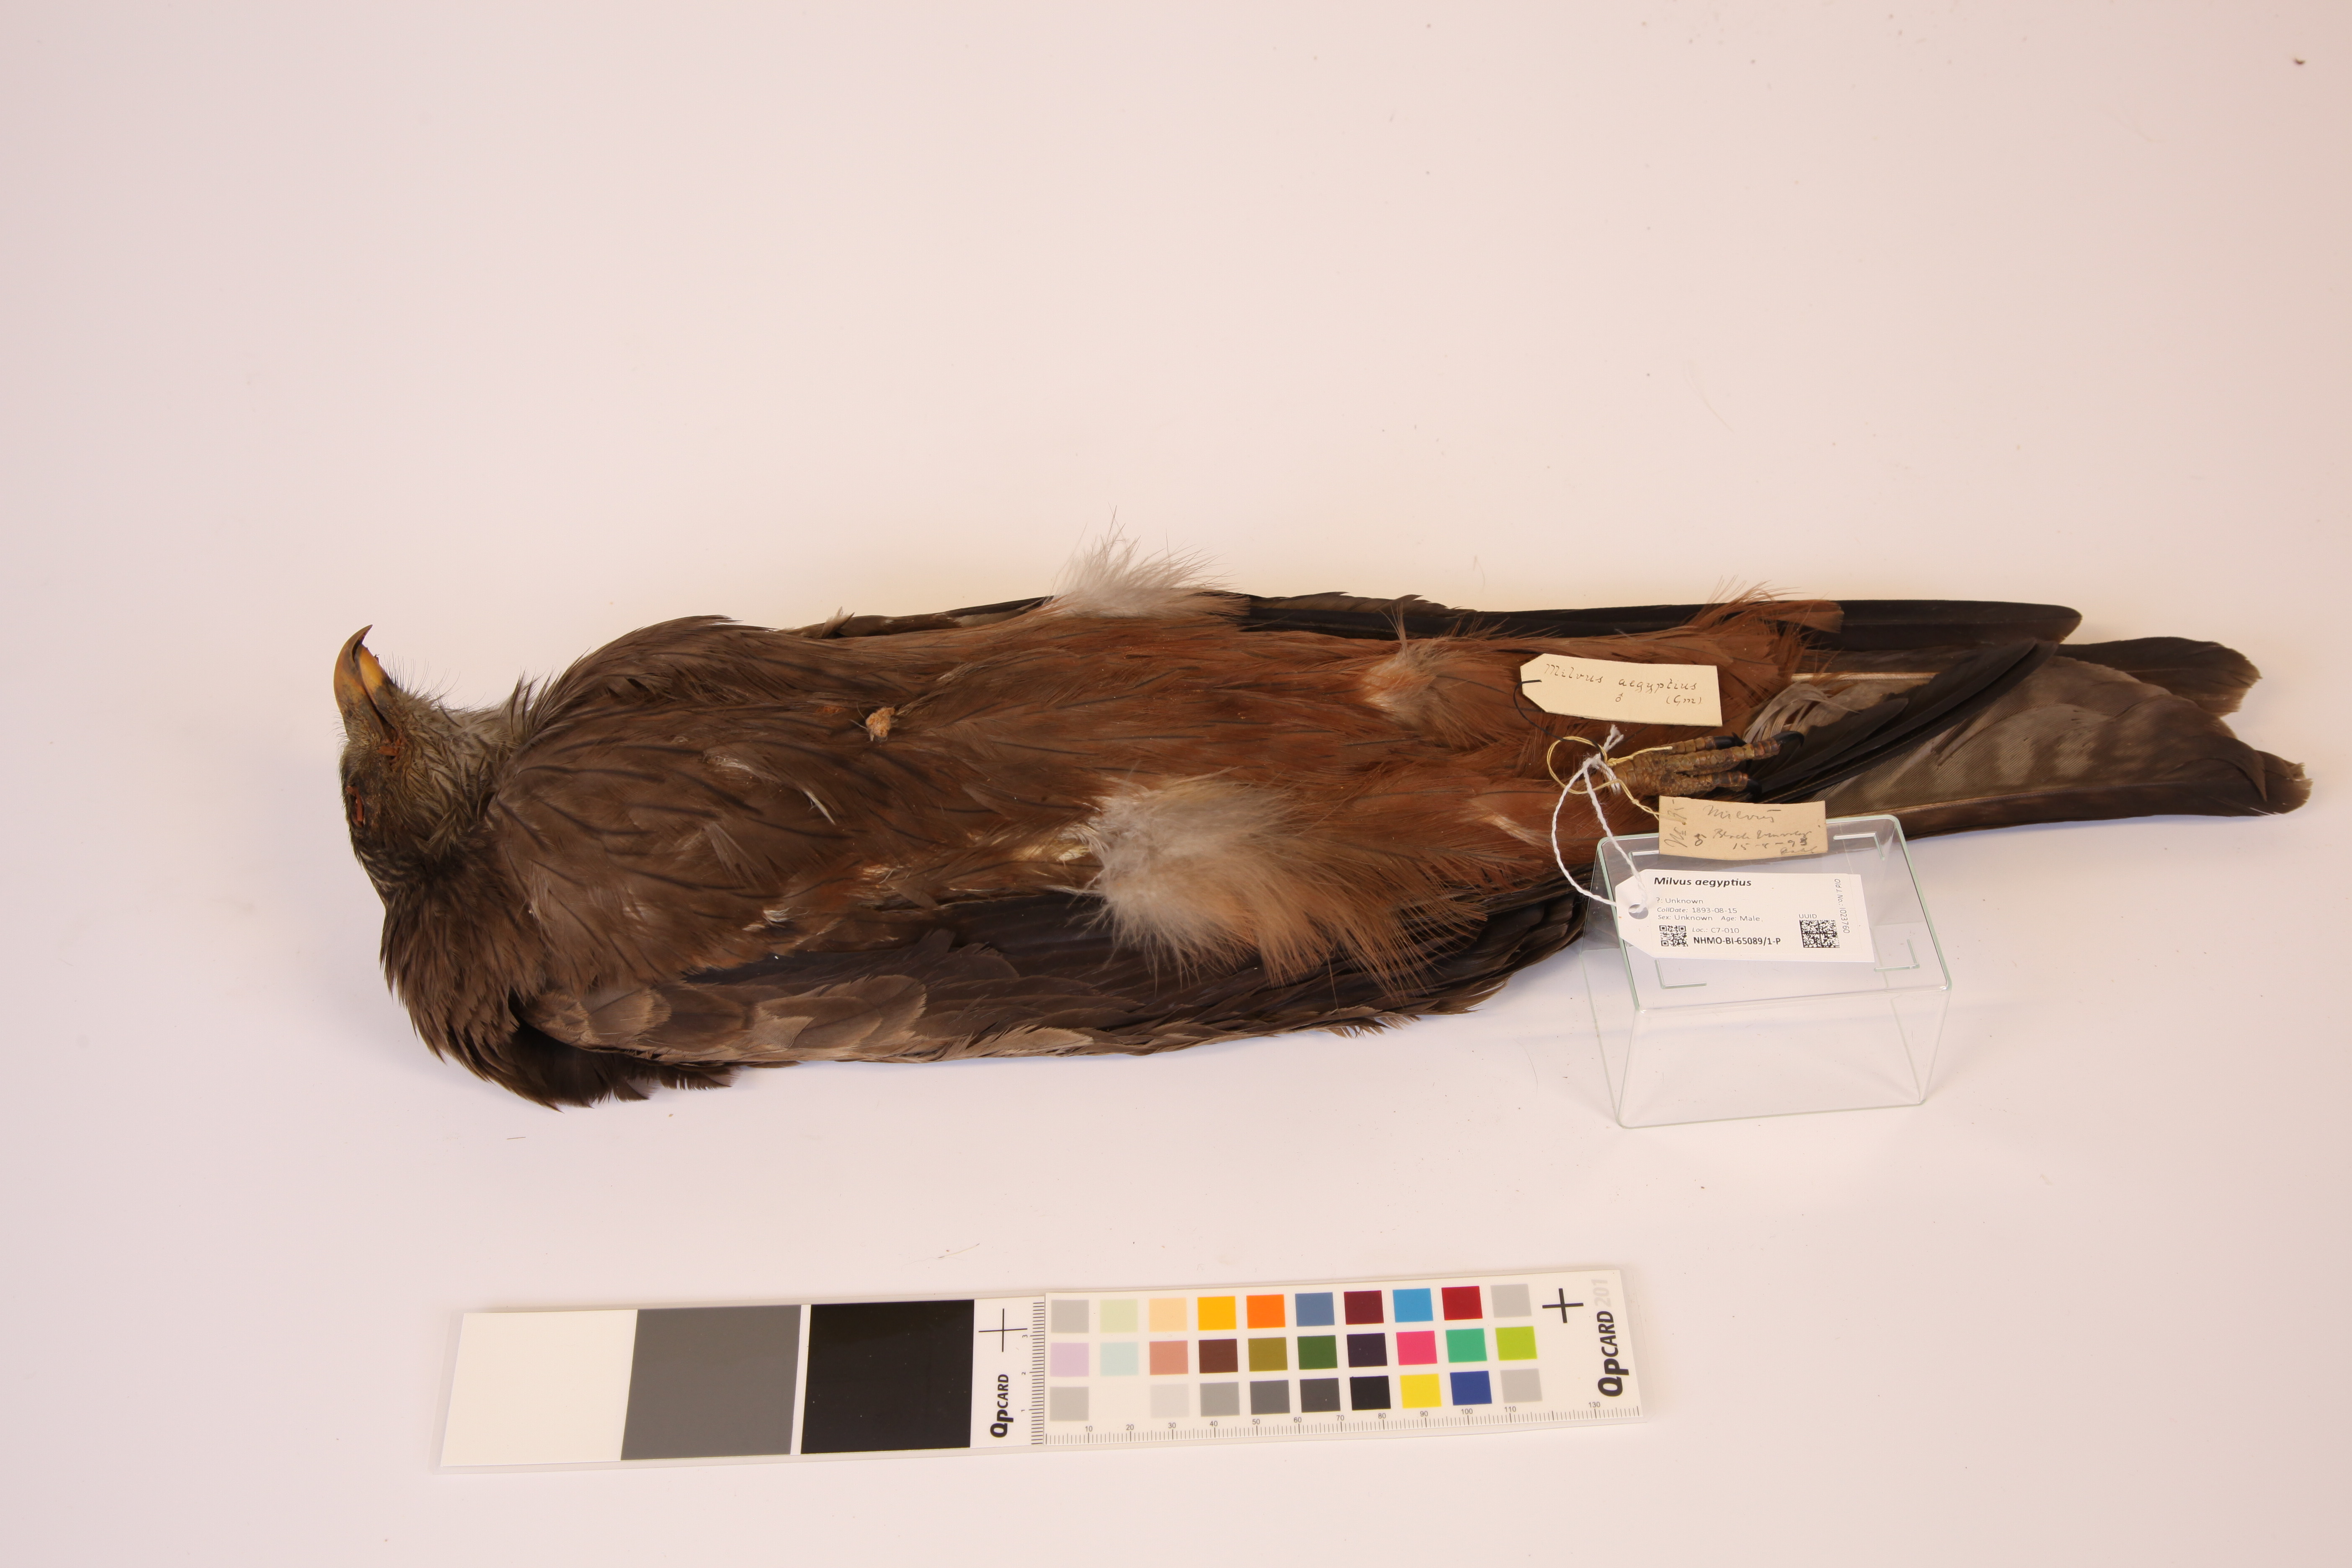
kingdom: Animalia
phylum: Chordata
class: Aves
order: Accipitriformes
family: Accipitridae
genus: Milvus
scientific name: Milvus aegyptius
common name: Yellow-billed kite
